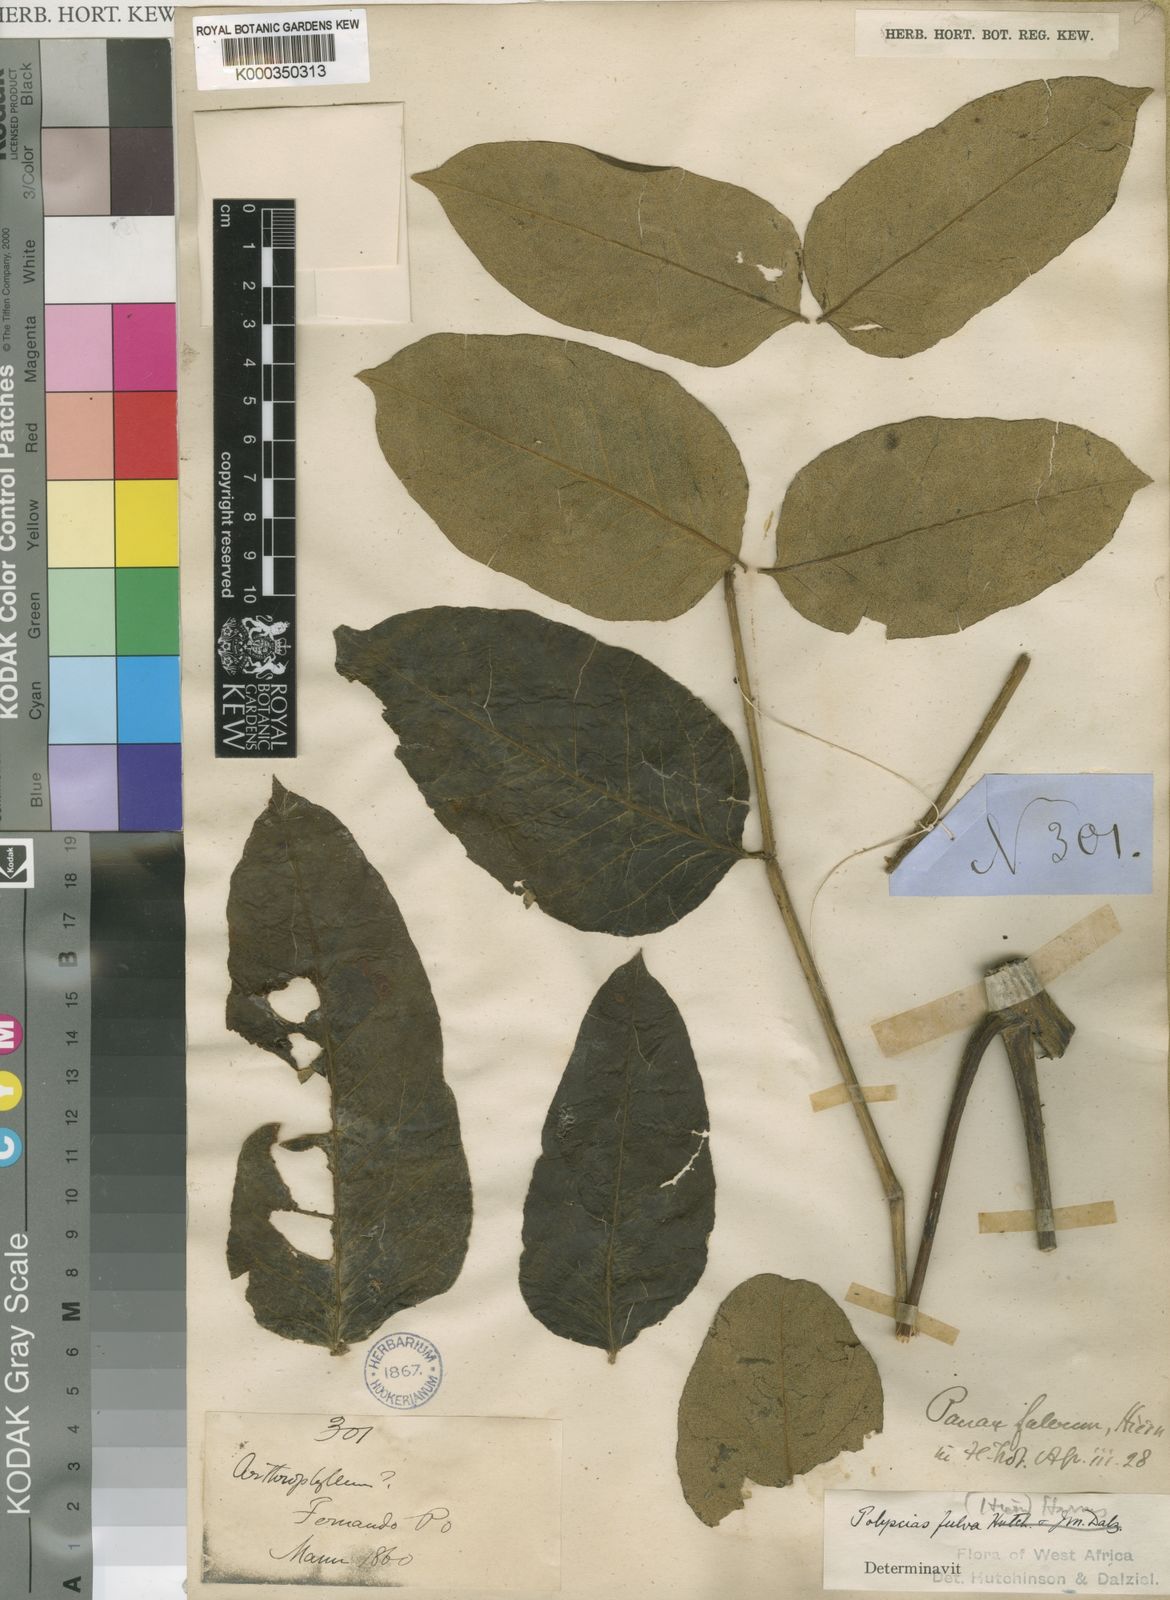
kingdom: Plantae
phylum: Tracheophyta
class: Magnoliopsida
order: Apiales
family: Araliaceae
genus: Polyscias
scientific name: Polyscias fulva
